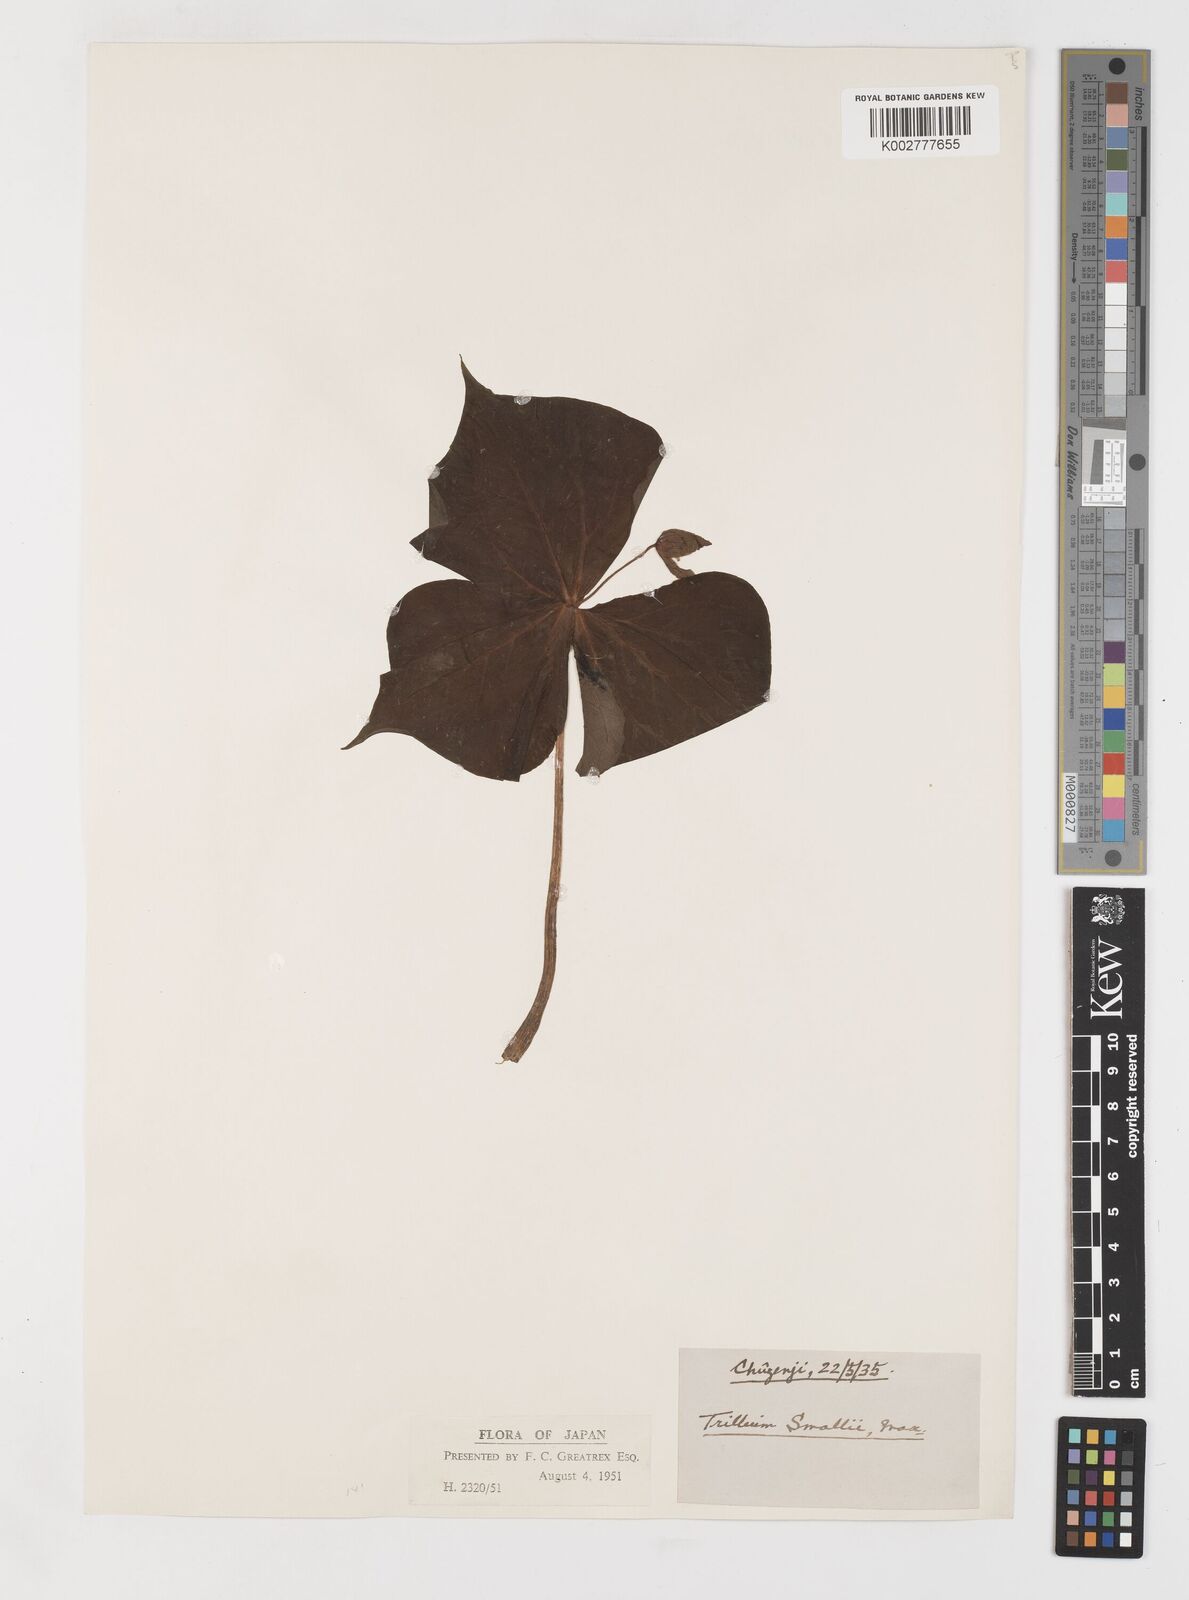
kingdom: Plantae
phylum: Tracheophyta
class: Liliopsida
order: Liliales
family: Melanthiaceae
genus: Trillium
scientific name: Trillium smallii
